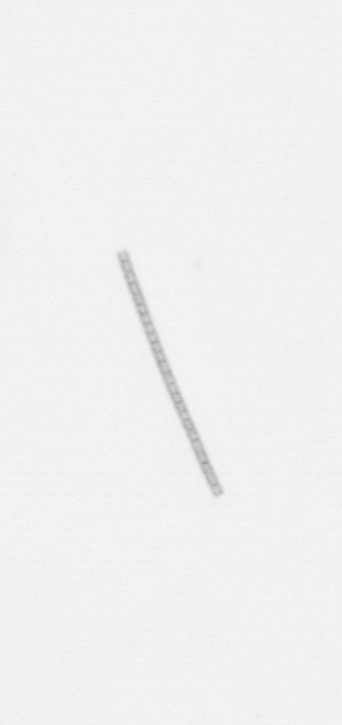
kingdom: Chromista
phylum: Ochrophyta
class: Bacillariophyceae
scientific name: Bacillariophyceae
